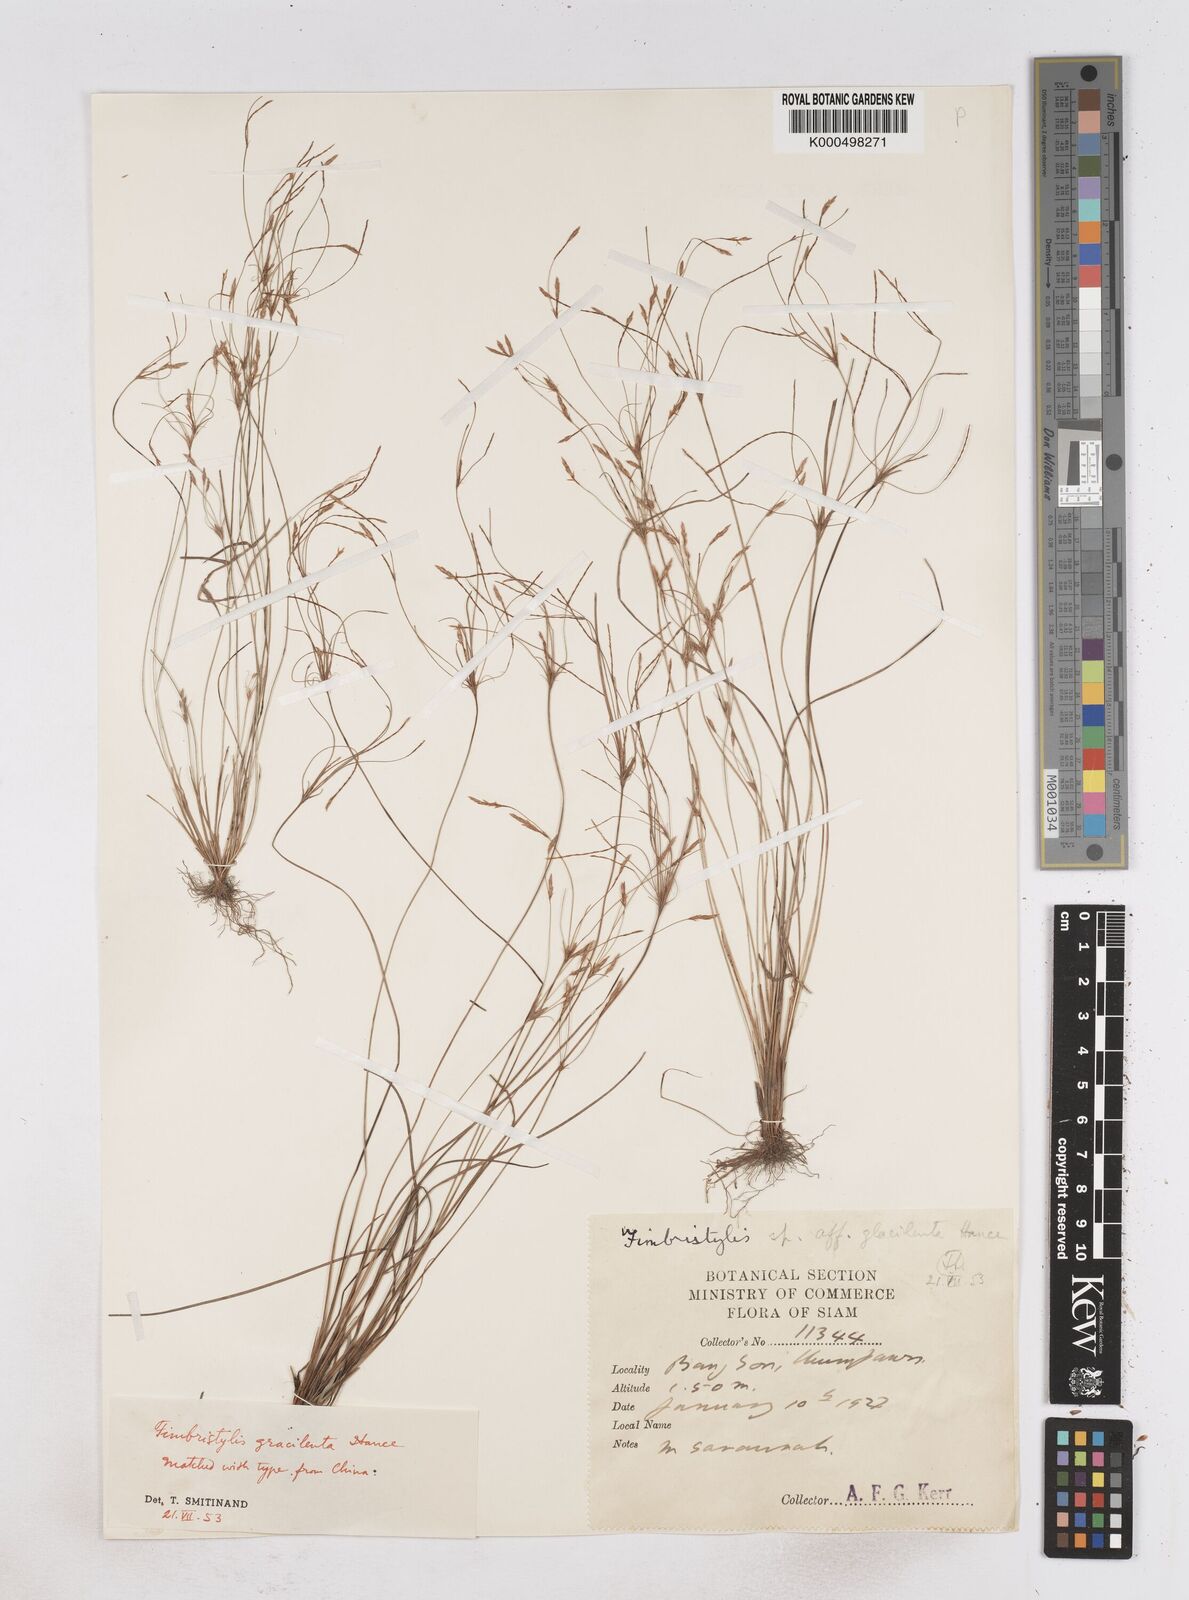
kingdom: Plantae
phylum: Tracheophyta
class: Liliopsida
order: Poales
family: Cyperaceae
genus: Fimbristylis
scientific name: Fimbristylis gracilenta
